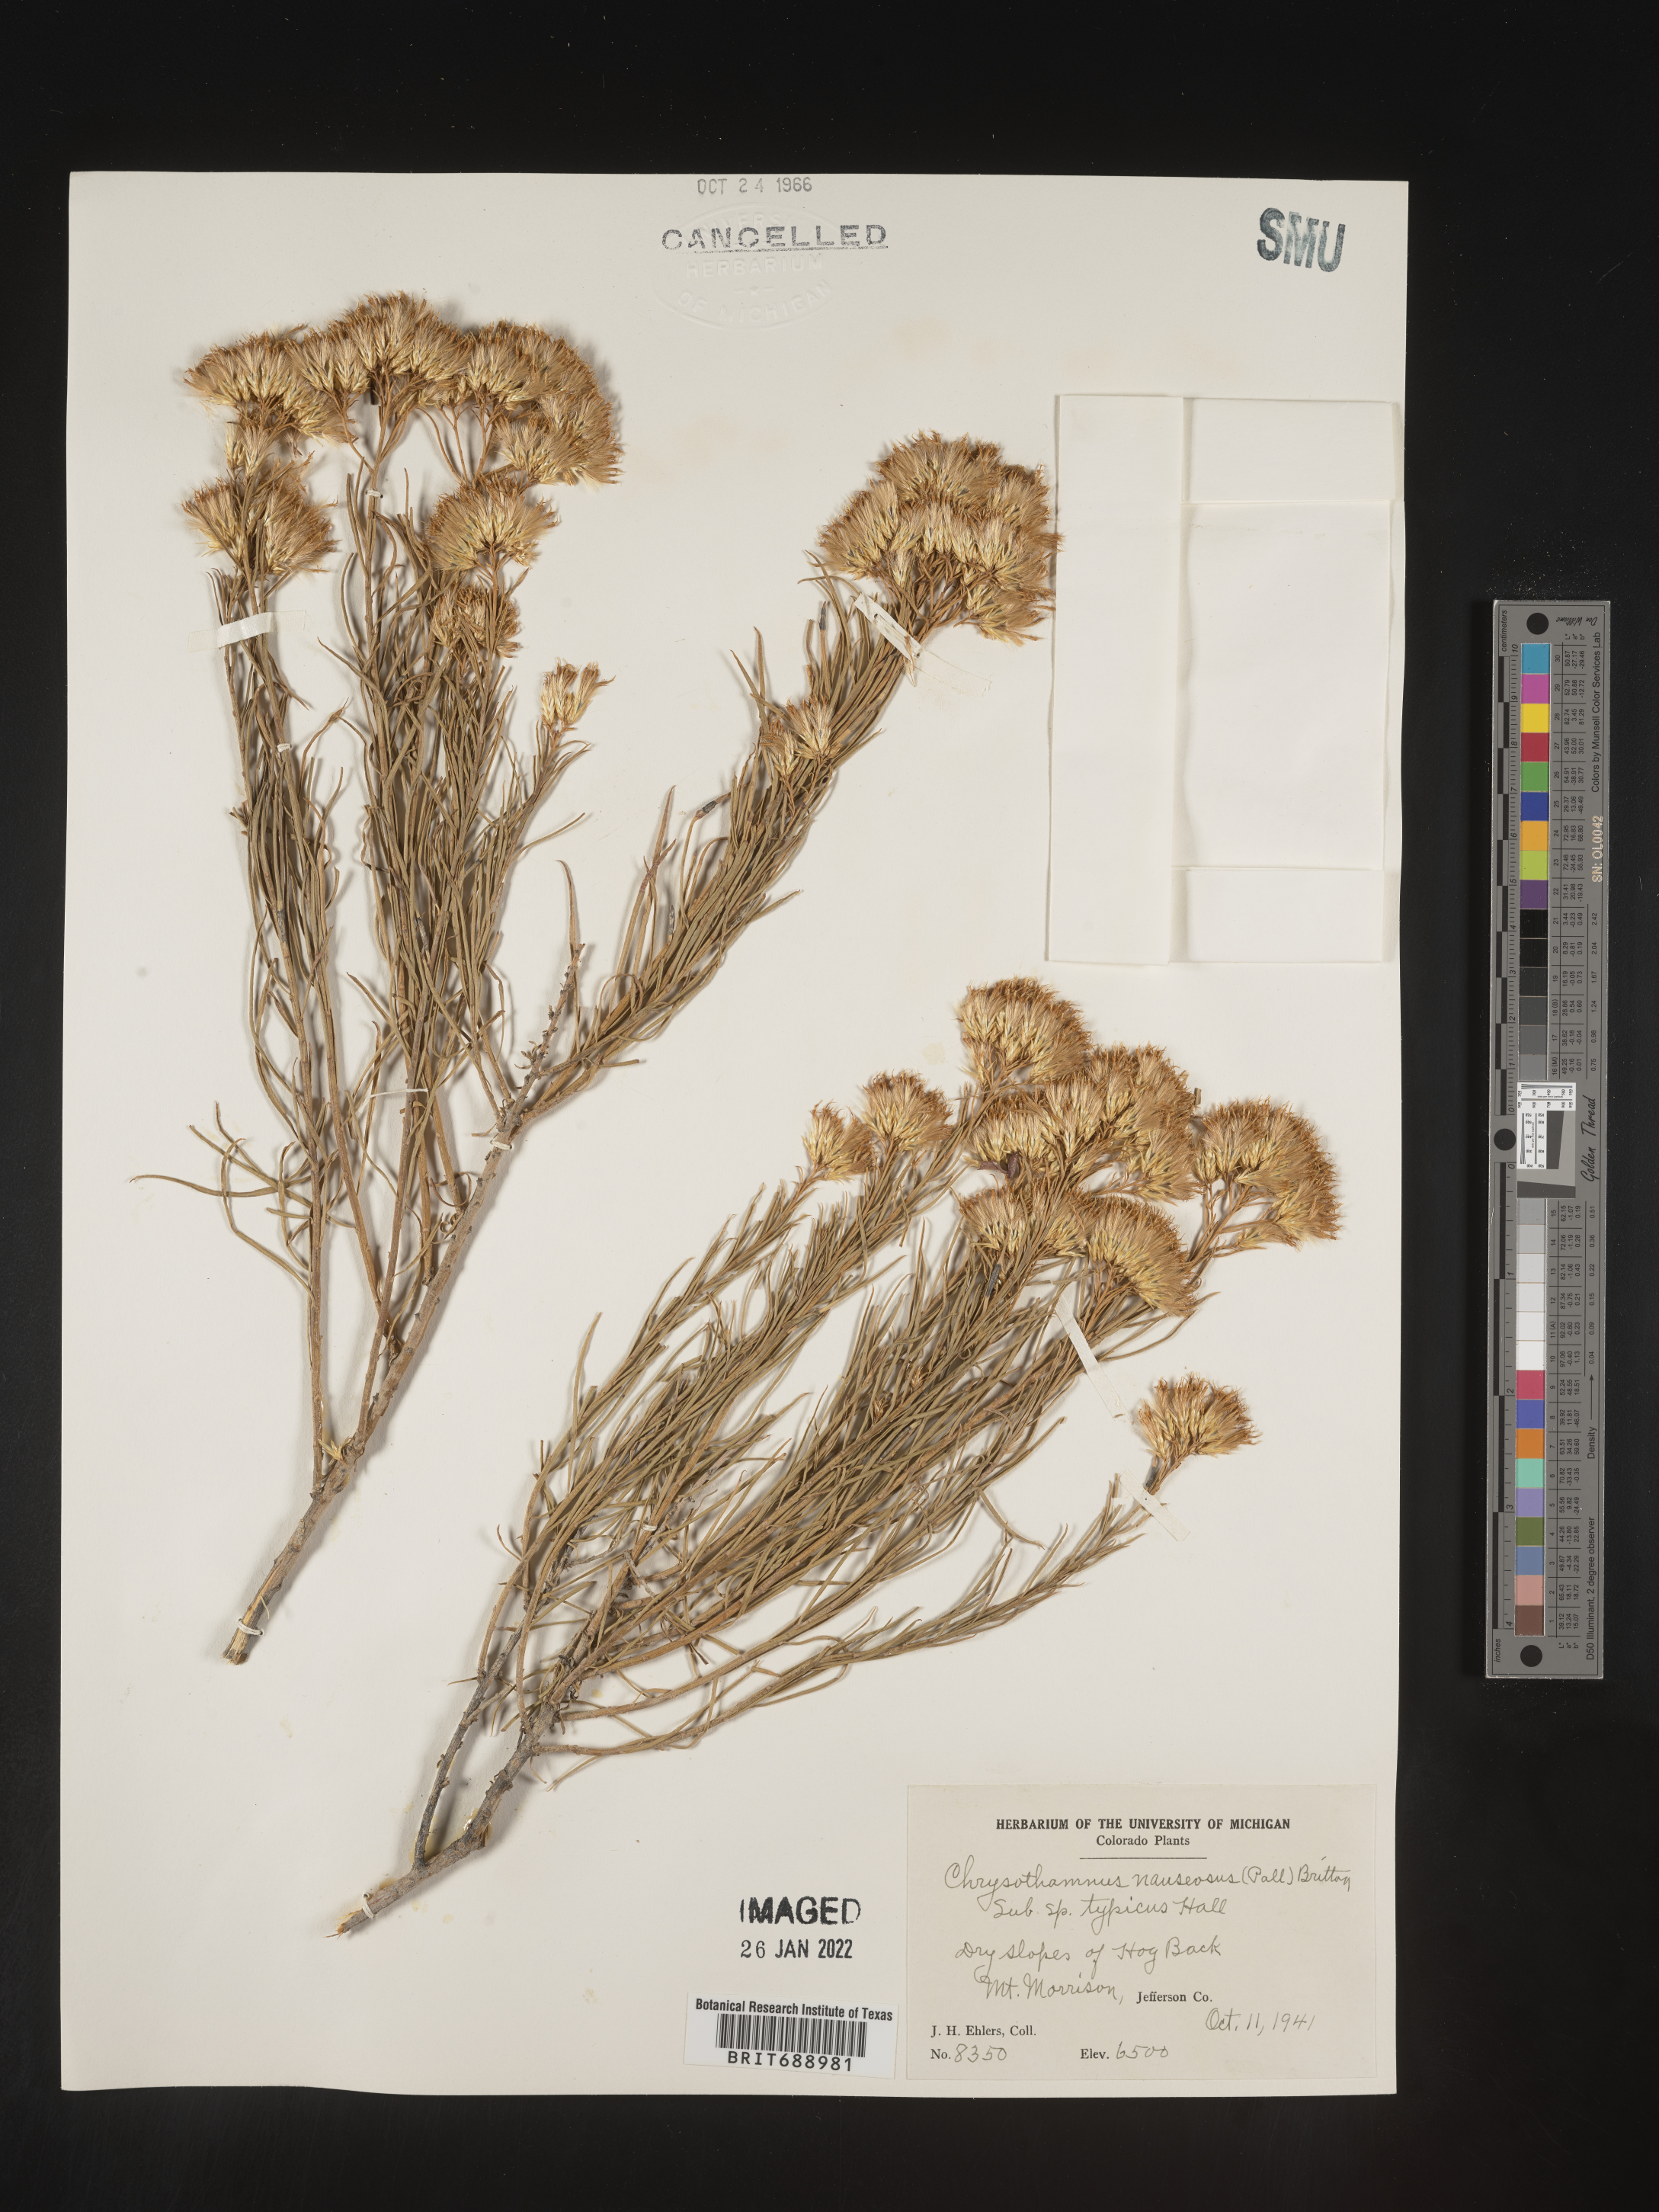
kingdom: Plantae
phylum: Tracheophyta
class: Magnoliopsida
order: Asterales
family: Asteraceae
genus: Ericameria
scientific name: Ericameria nauseosa
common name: Rubber rabbitbrush
